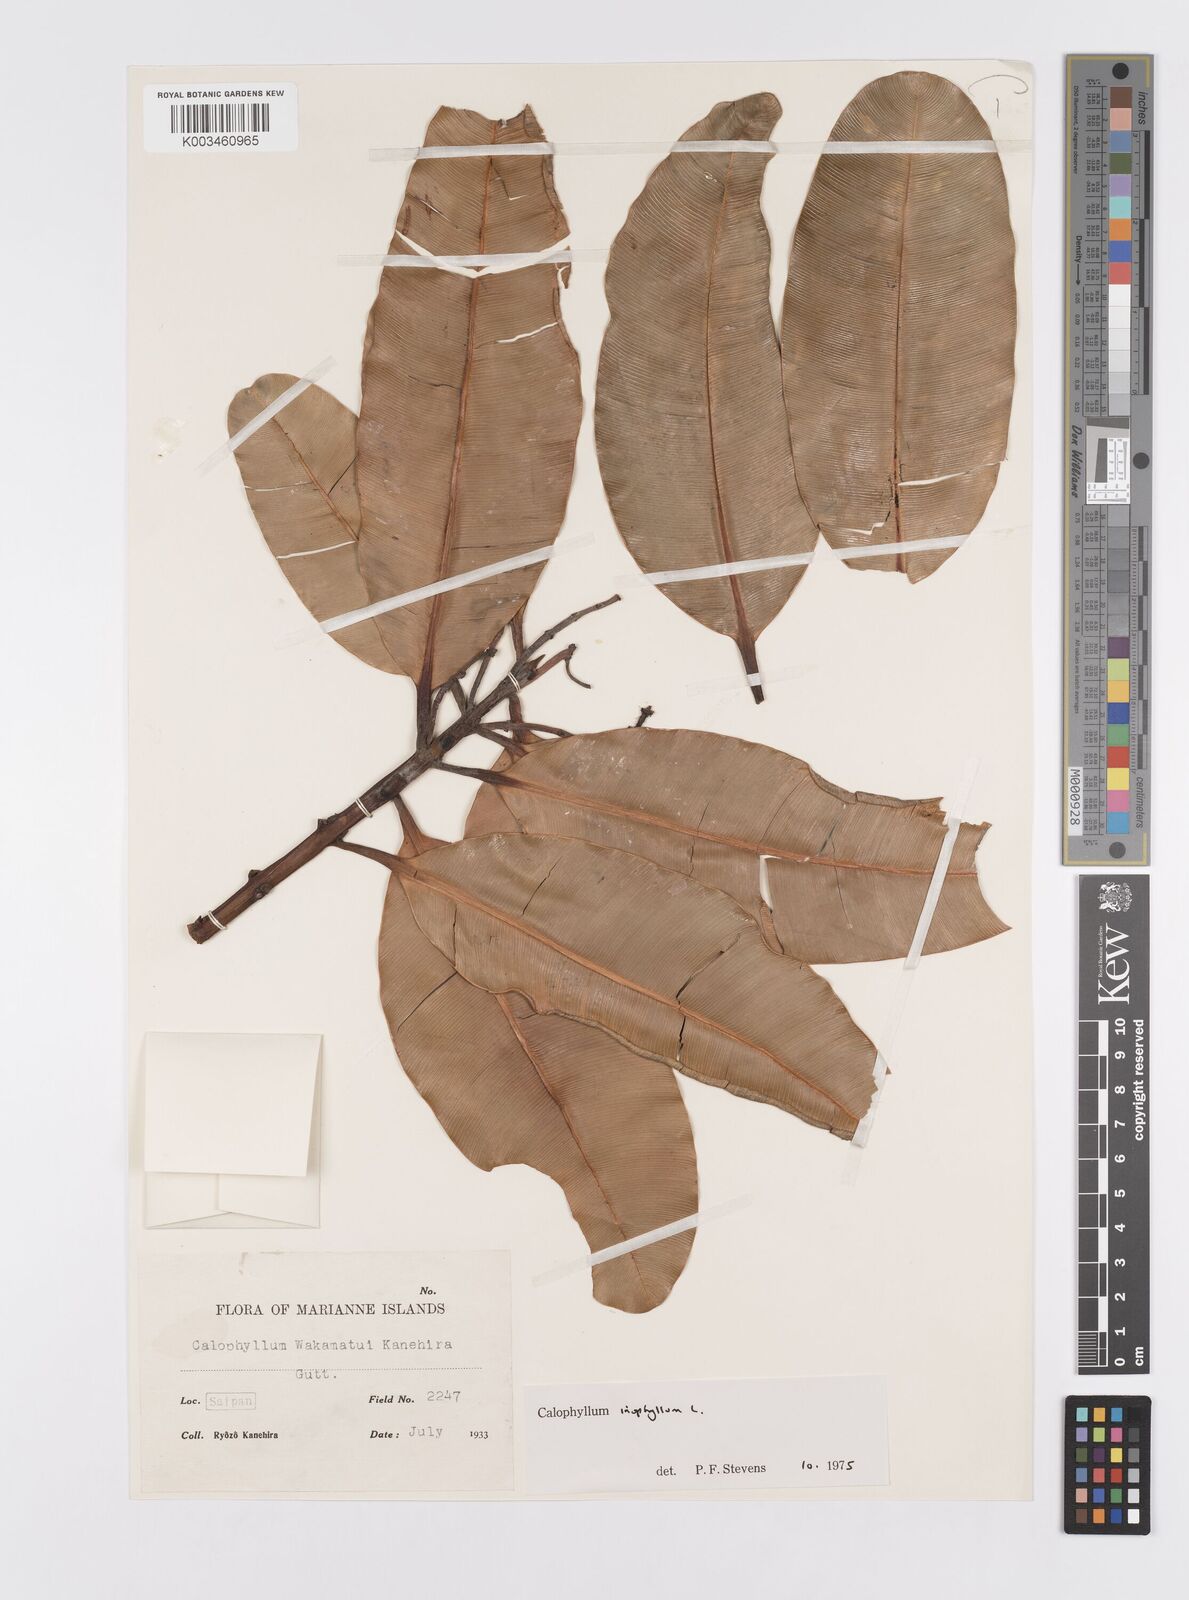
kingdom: Plantae
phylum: Tracheophyta
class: Magnoliopsida
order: Malpighiales
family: Calophyllaceae
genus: Calophyllum
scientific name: Calophyllum inophyllum
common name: Alexandrian laurel
